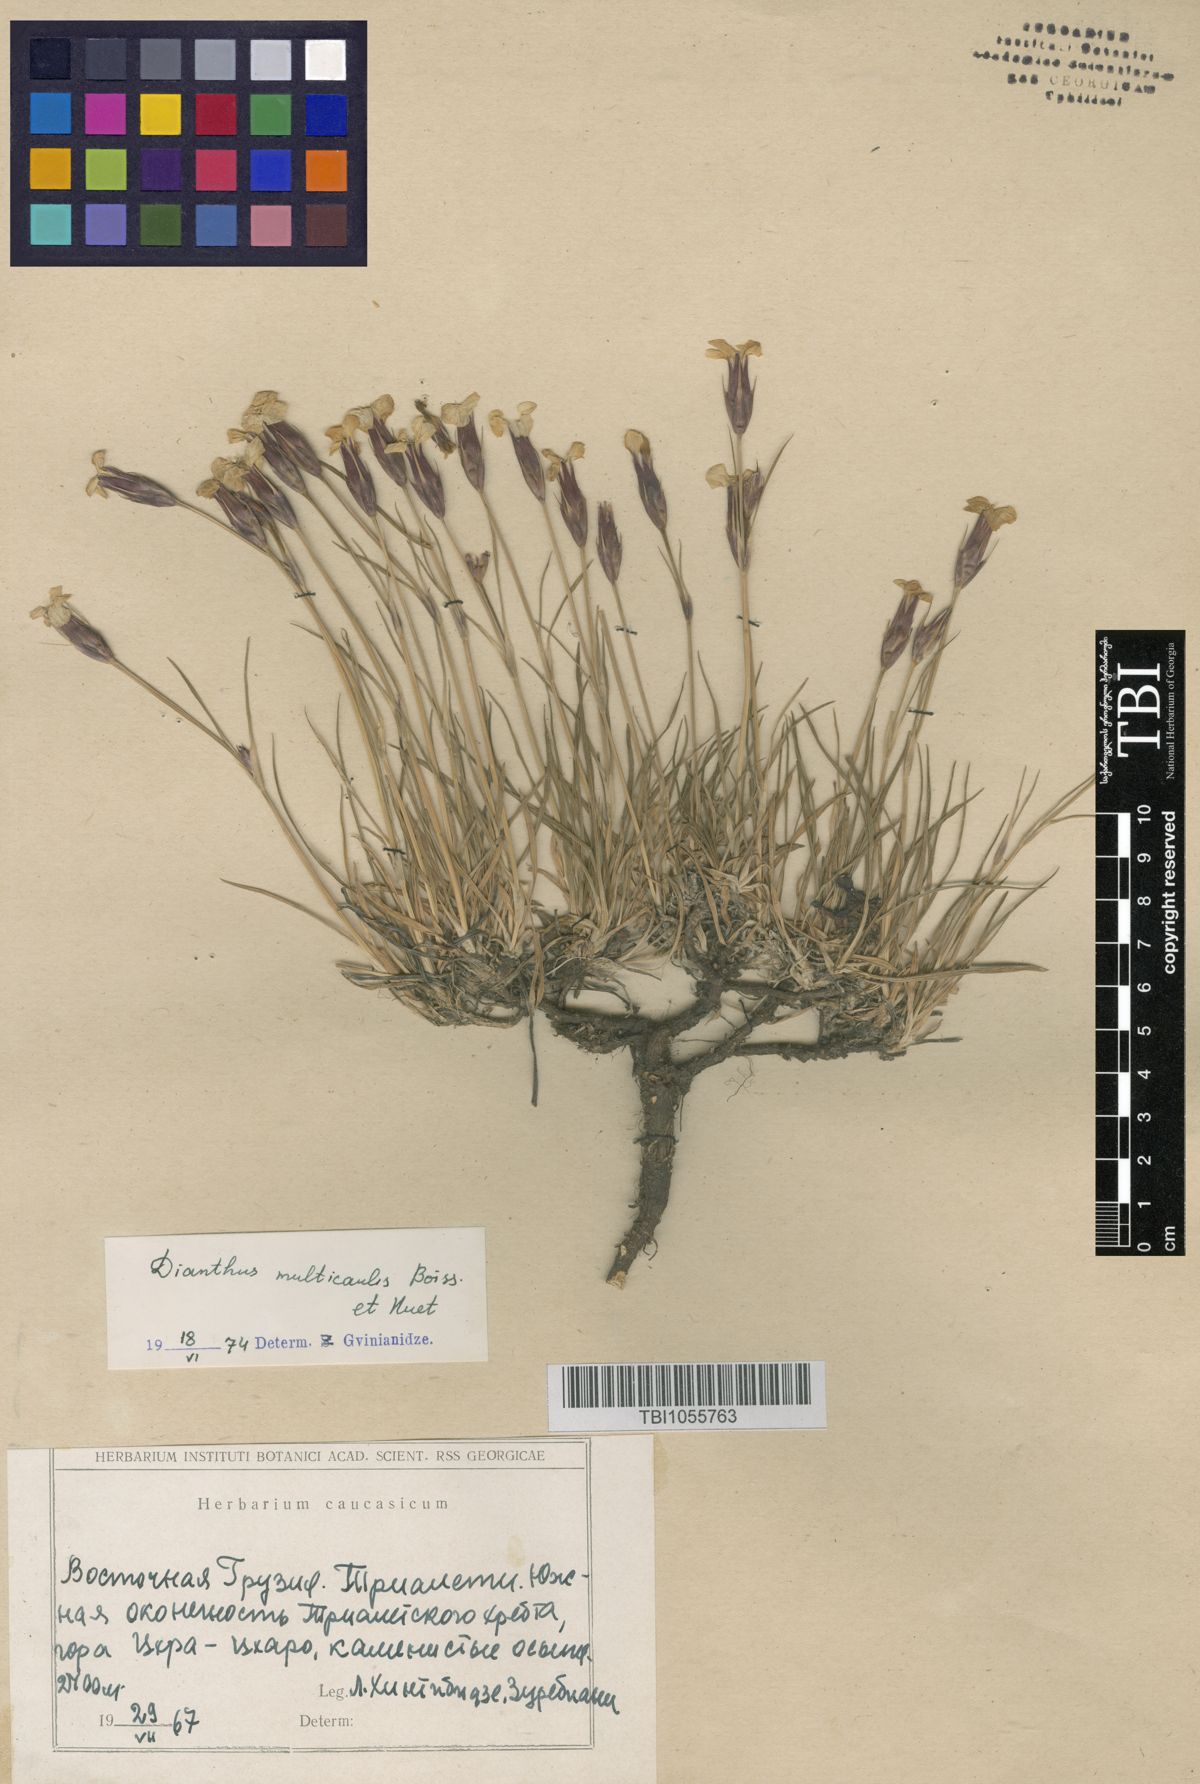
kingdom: Plantae
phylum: Tracheophyta
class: Magnoliopsida
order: Caryophyllales
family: Caryophyllaceae
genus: Dianthus
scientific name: Dianthus cretaceus
